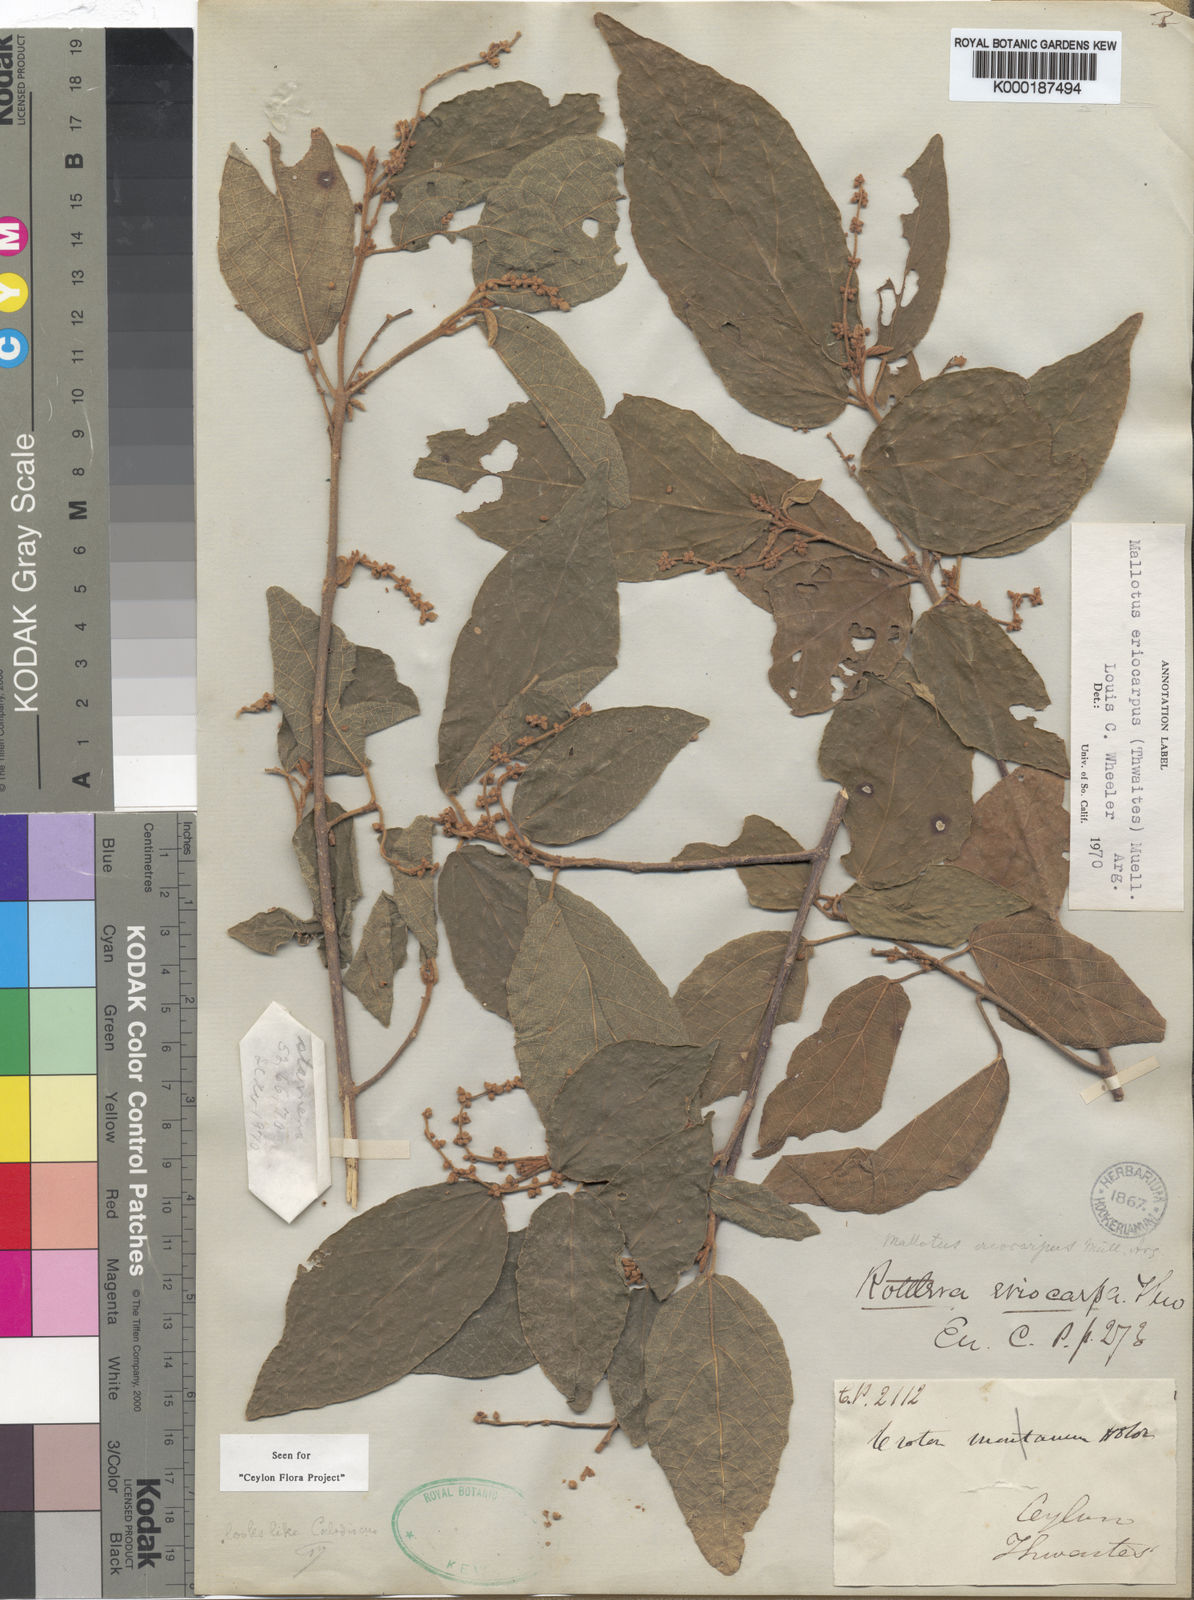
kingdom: Plantae
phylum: Tracheophyta
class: Magnoliopsida
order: Malpighiales
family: Euphorbiaceae
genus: Mallotus
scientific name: Mallotus eriocarpus
